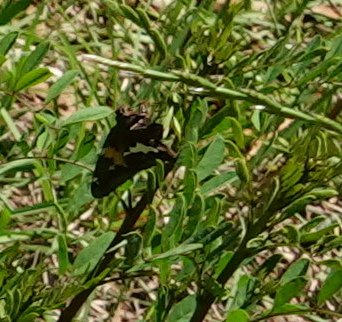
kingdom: Animalia
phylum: Arthropoda
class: Insecta
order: Lepidoptera
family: Hesperiidae
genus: Epargyreus
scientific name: Epargyreus clarus
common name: Silver-spotted Skipper
